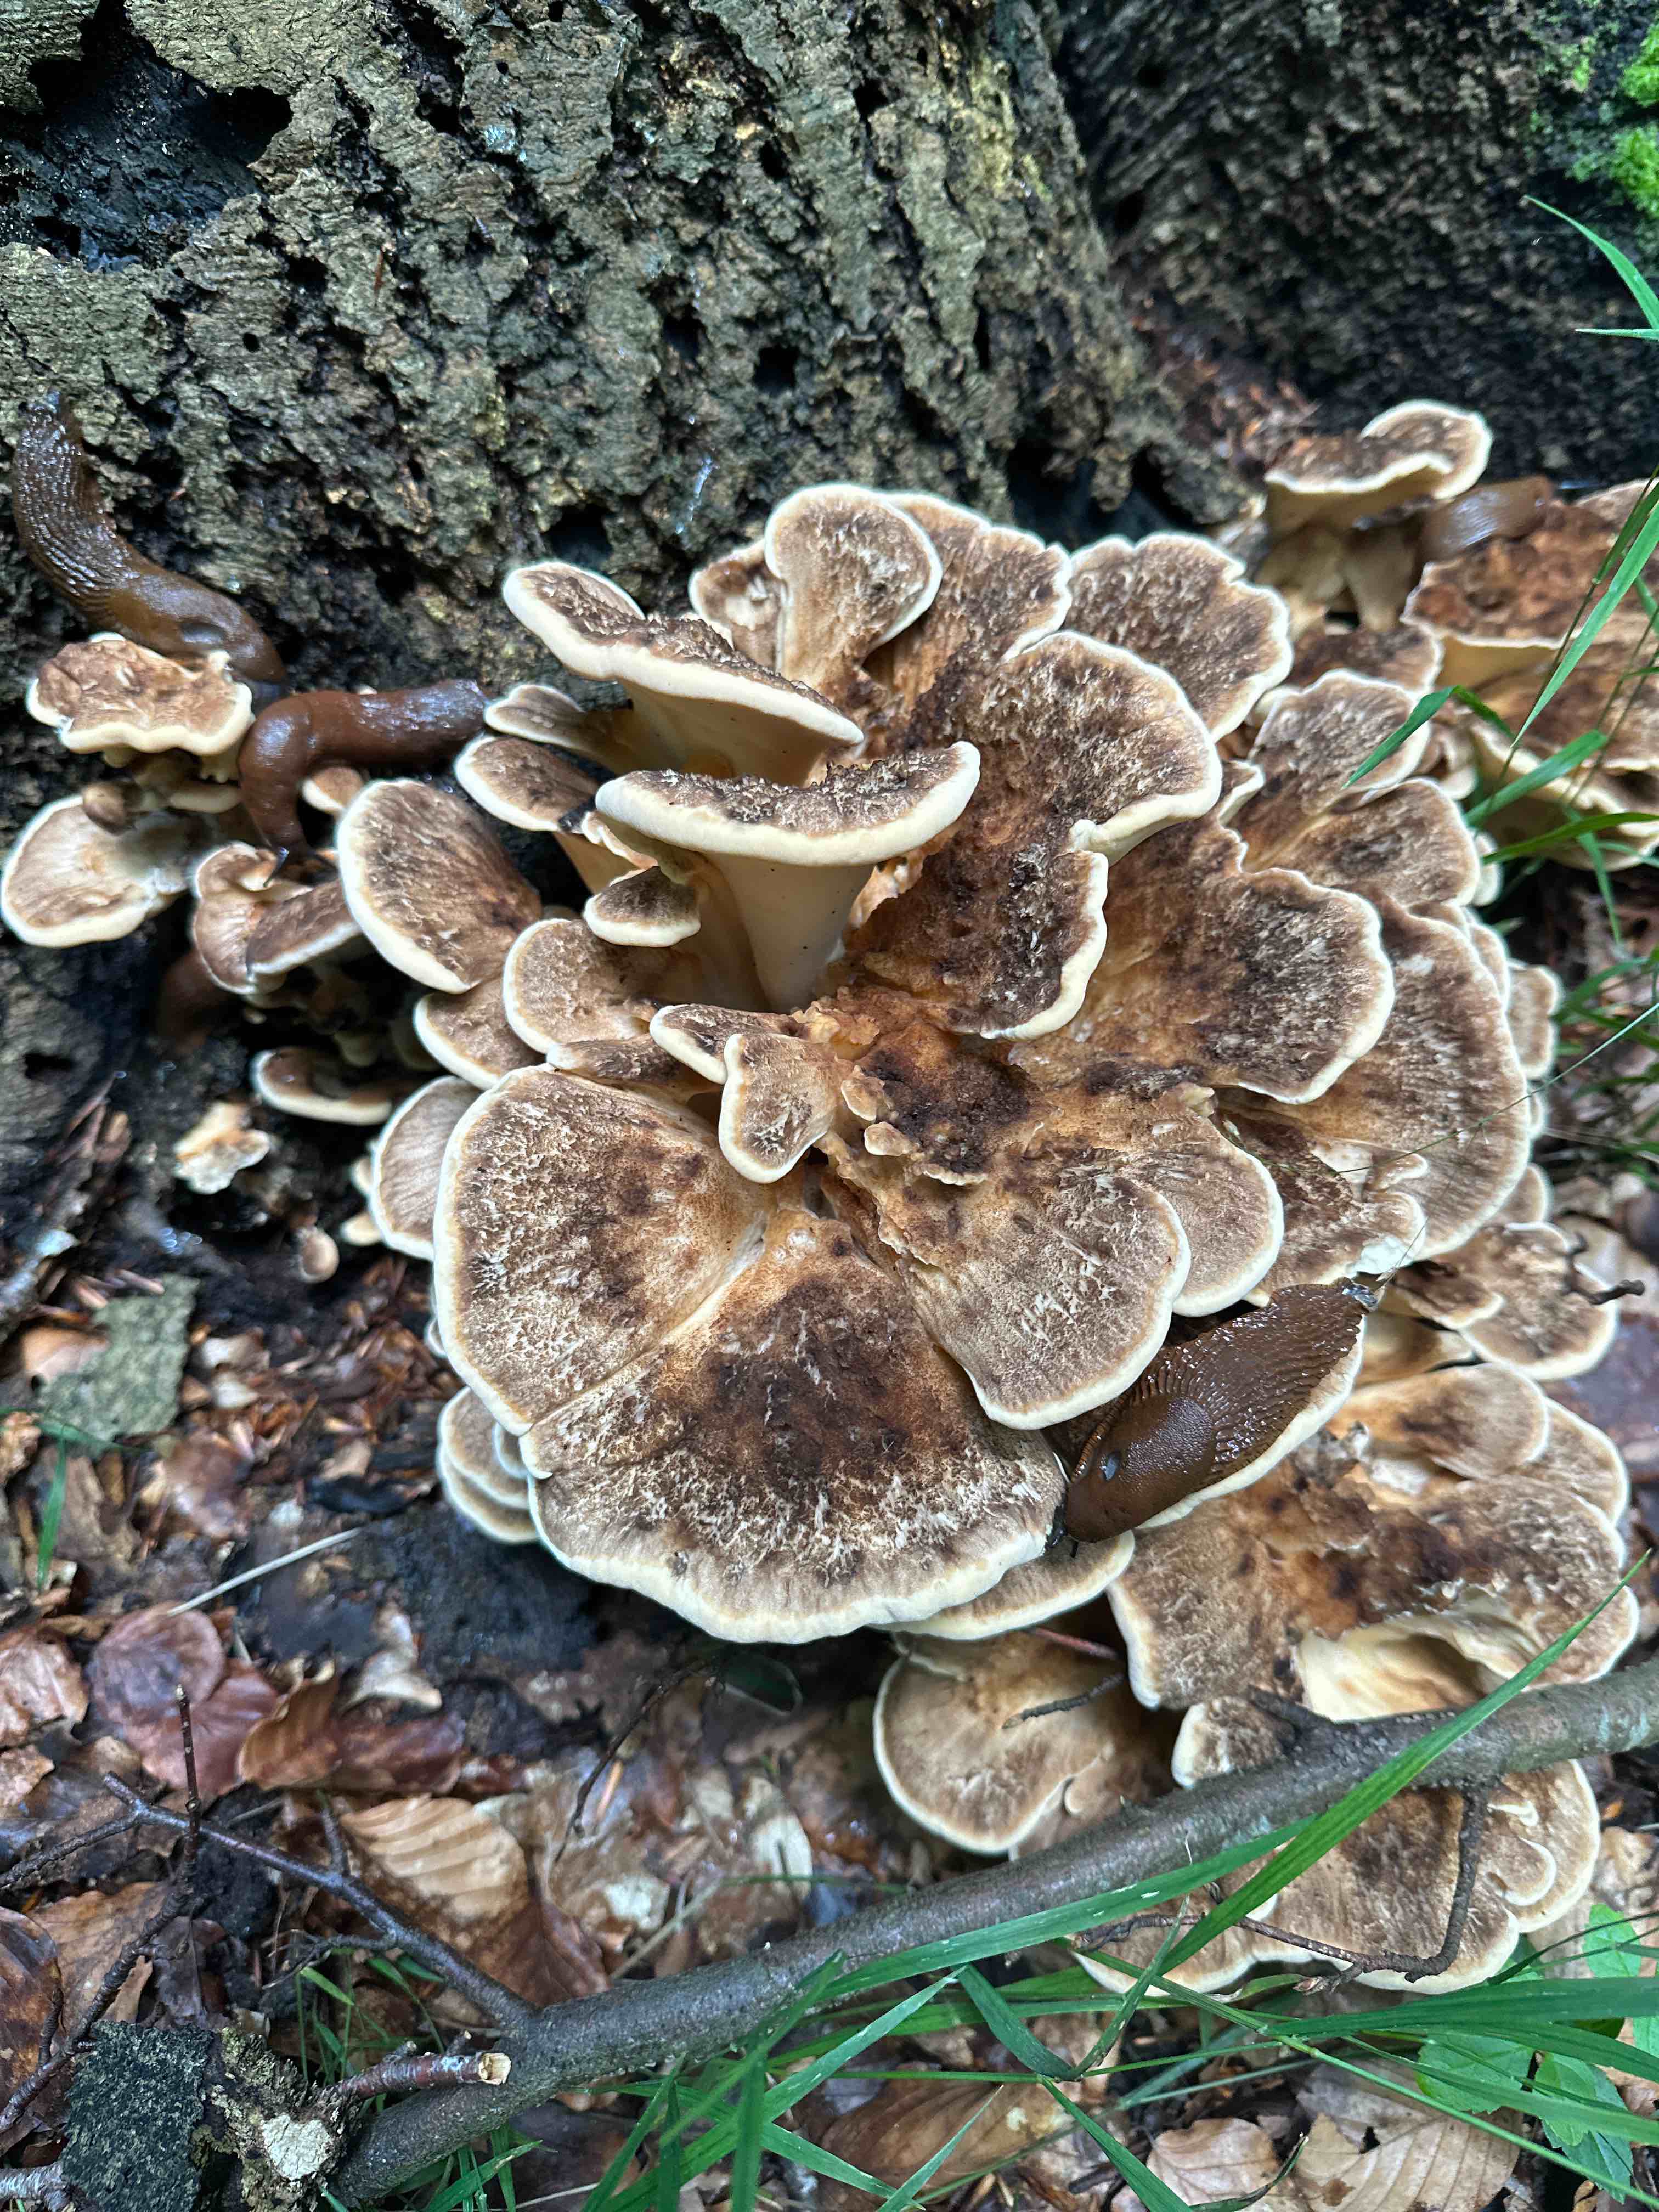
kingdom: Fungi
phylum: Basidiomycota
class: Agaricomycetes
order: Polyporales
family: Meripilaceae
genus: Meripilus
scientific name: Meripilus giganteus
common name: kæmpeporesvamp
